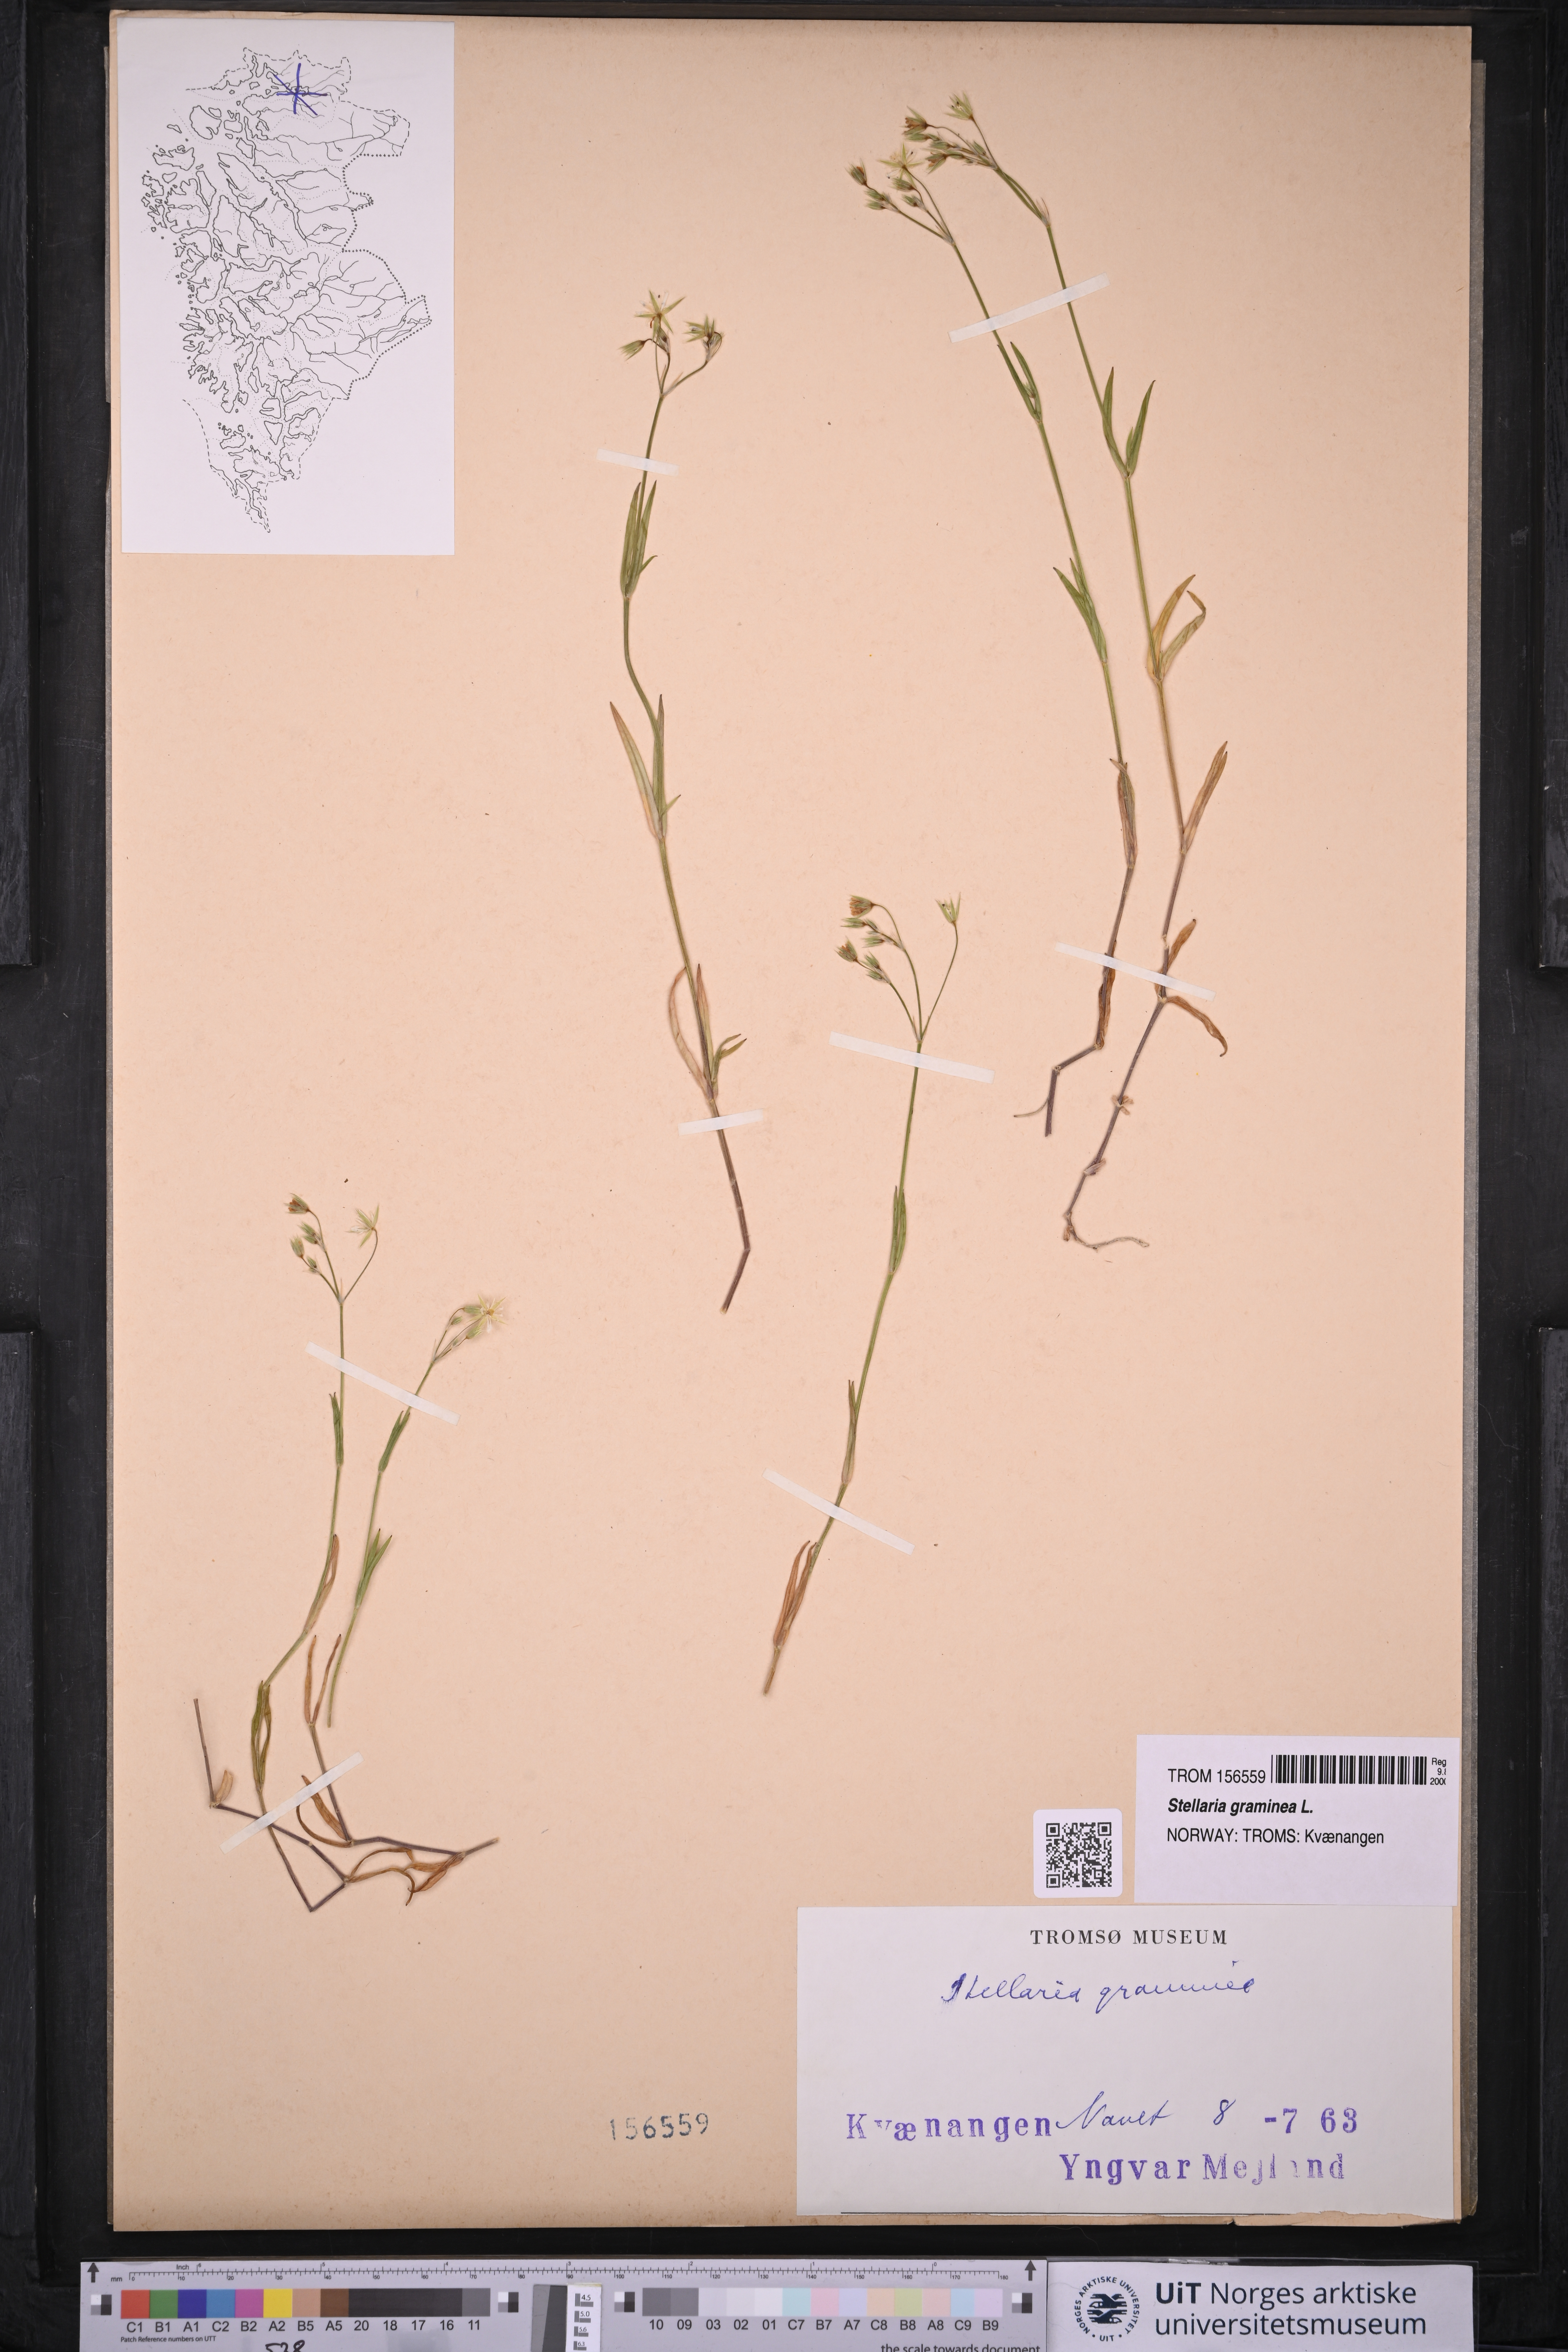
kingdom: Plantae
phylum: Tracheophyta
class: Magnoliopsida
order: Caryophyllales
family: Caryophyllaceae
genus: Stellaria
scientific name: Stellaria graminea
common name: Grass-like starwort
